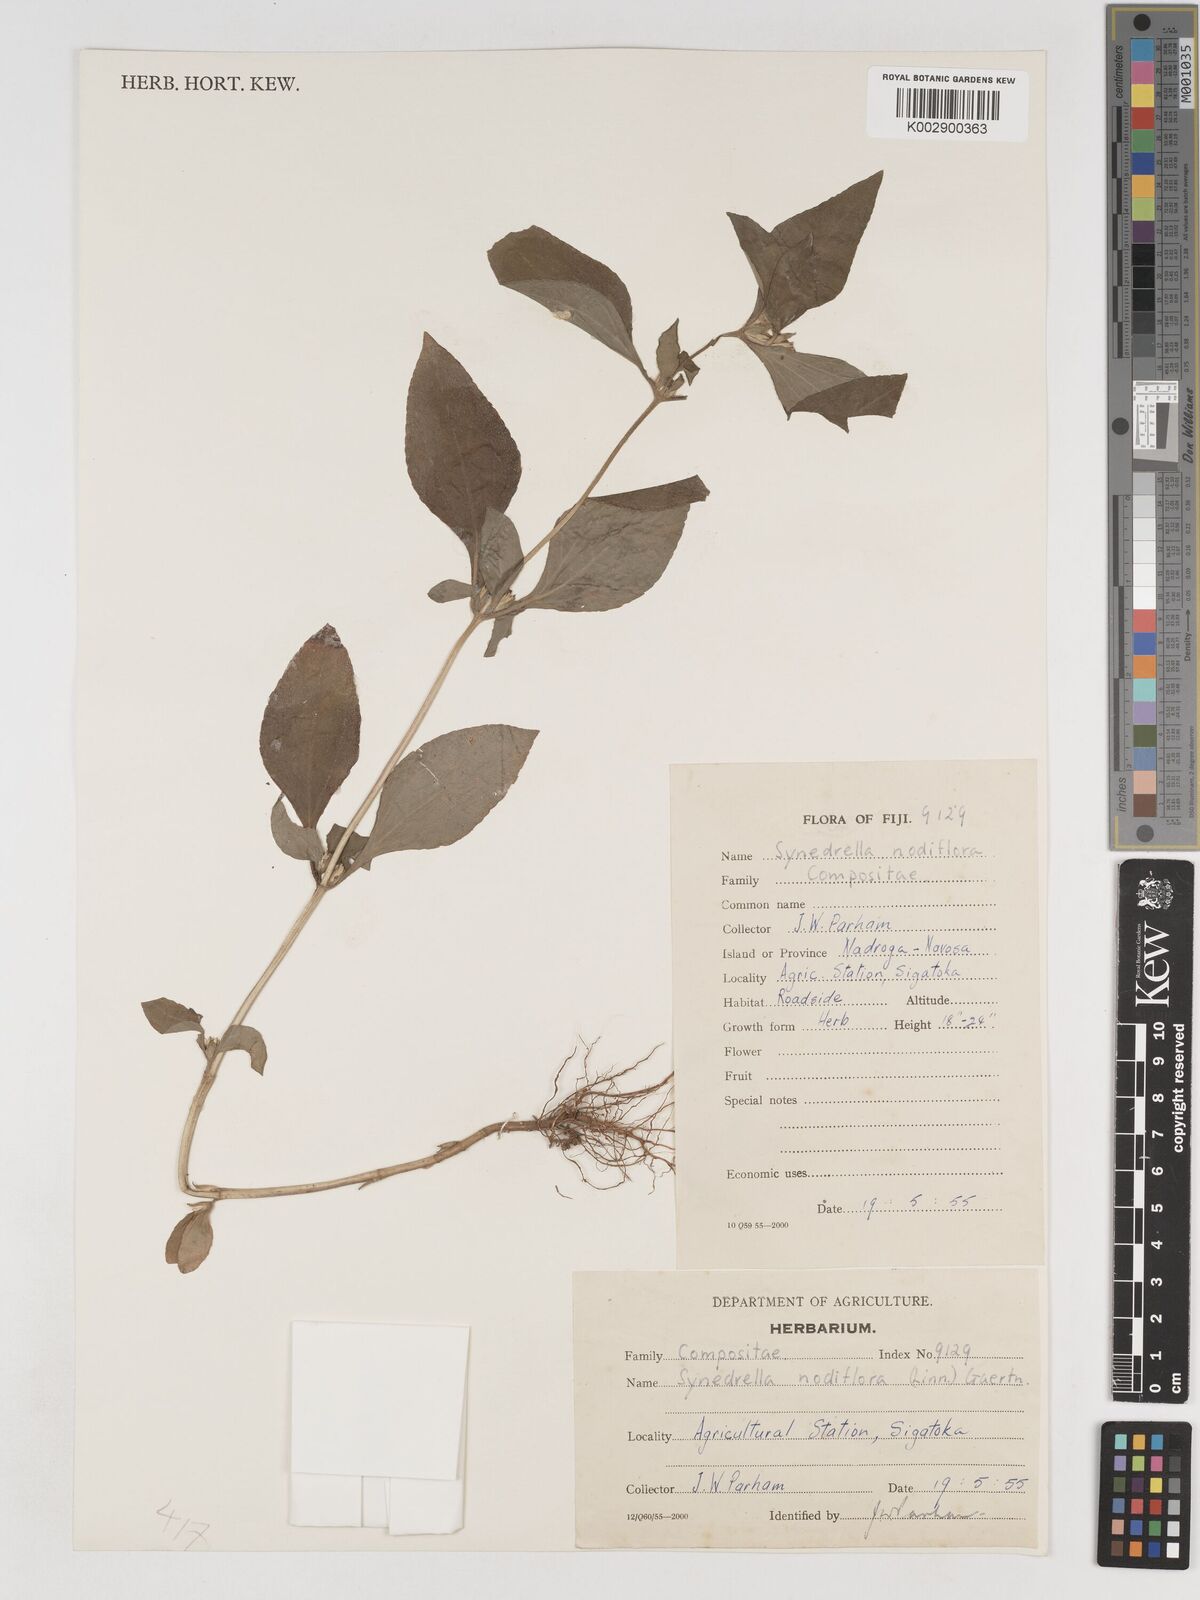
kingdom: Plantae
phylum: Tracheophyta
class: Magnoliopsida
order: Asterales
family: Asteraceae
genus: Synedrella
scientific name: Synedrella nodiflora
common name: Nodeweed
